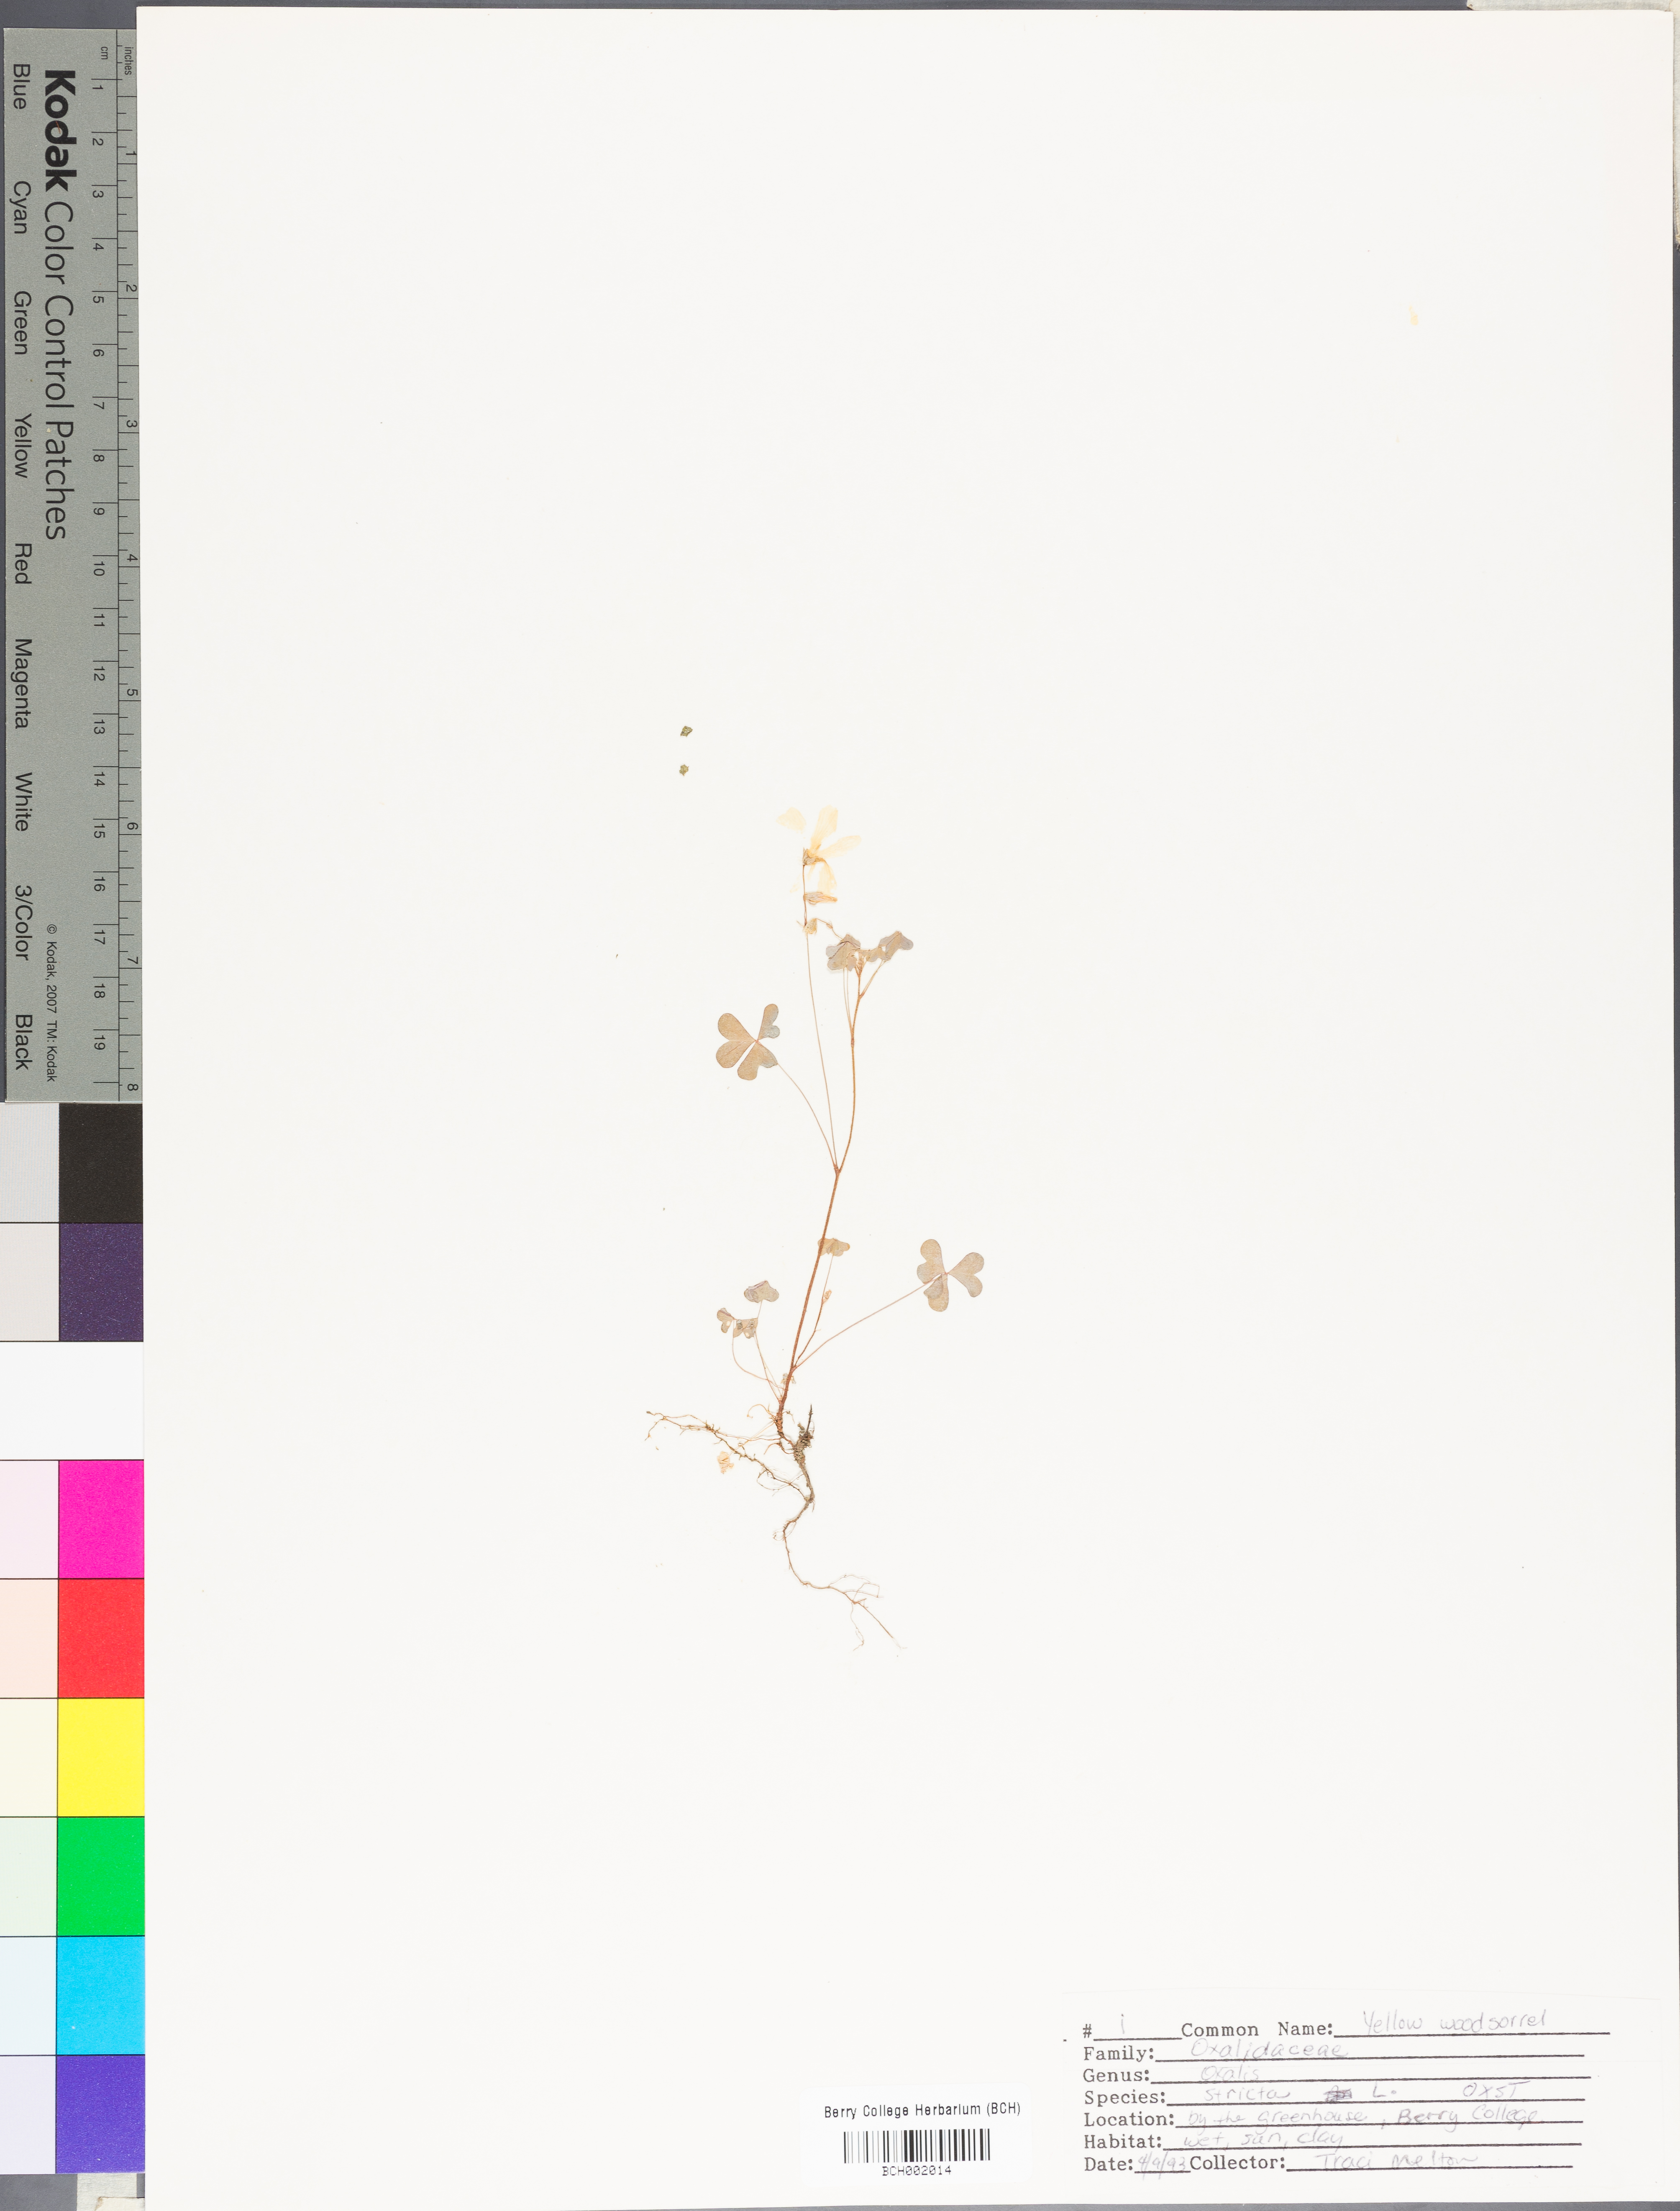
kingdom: Plantae
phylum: Tracheophyta
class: Magnoliopsida
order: Oxalidales
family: Oxalidaceae
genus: Oxalis
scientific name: Oxalis stricta
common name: Upright yellow-sorrel
